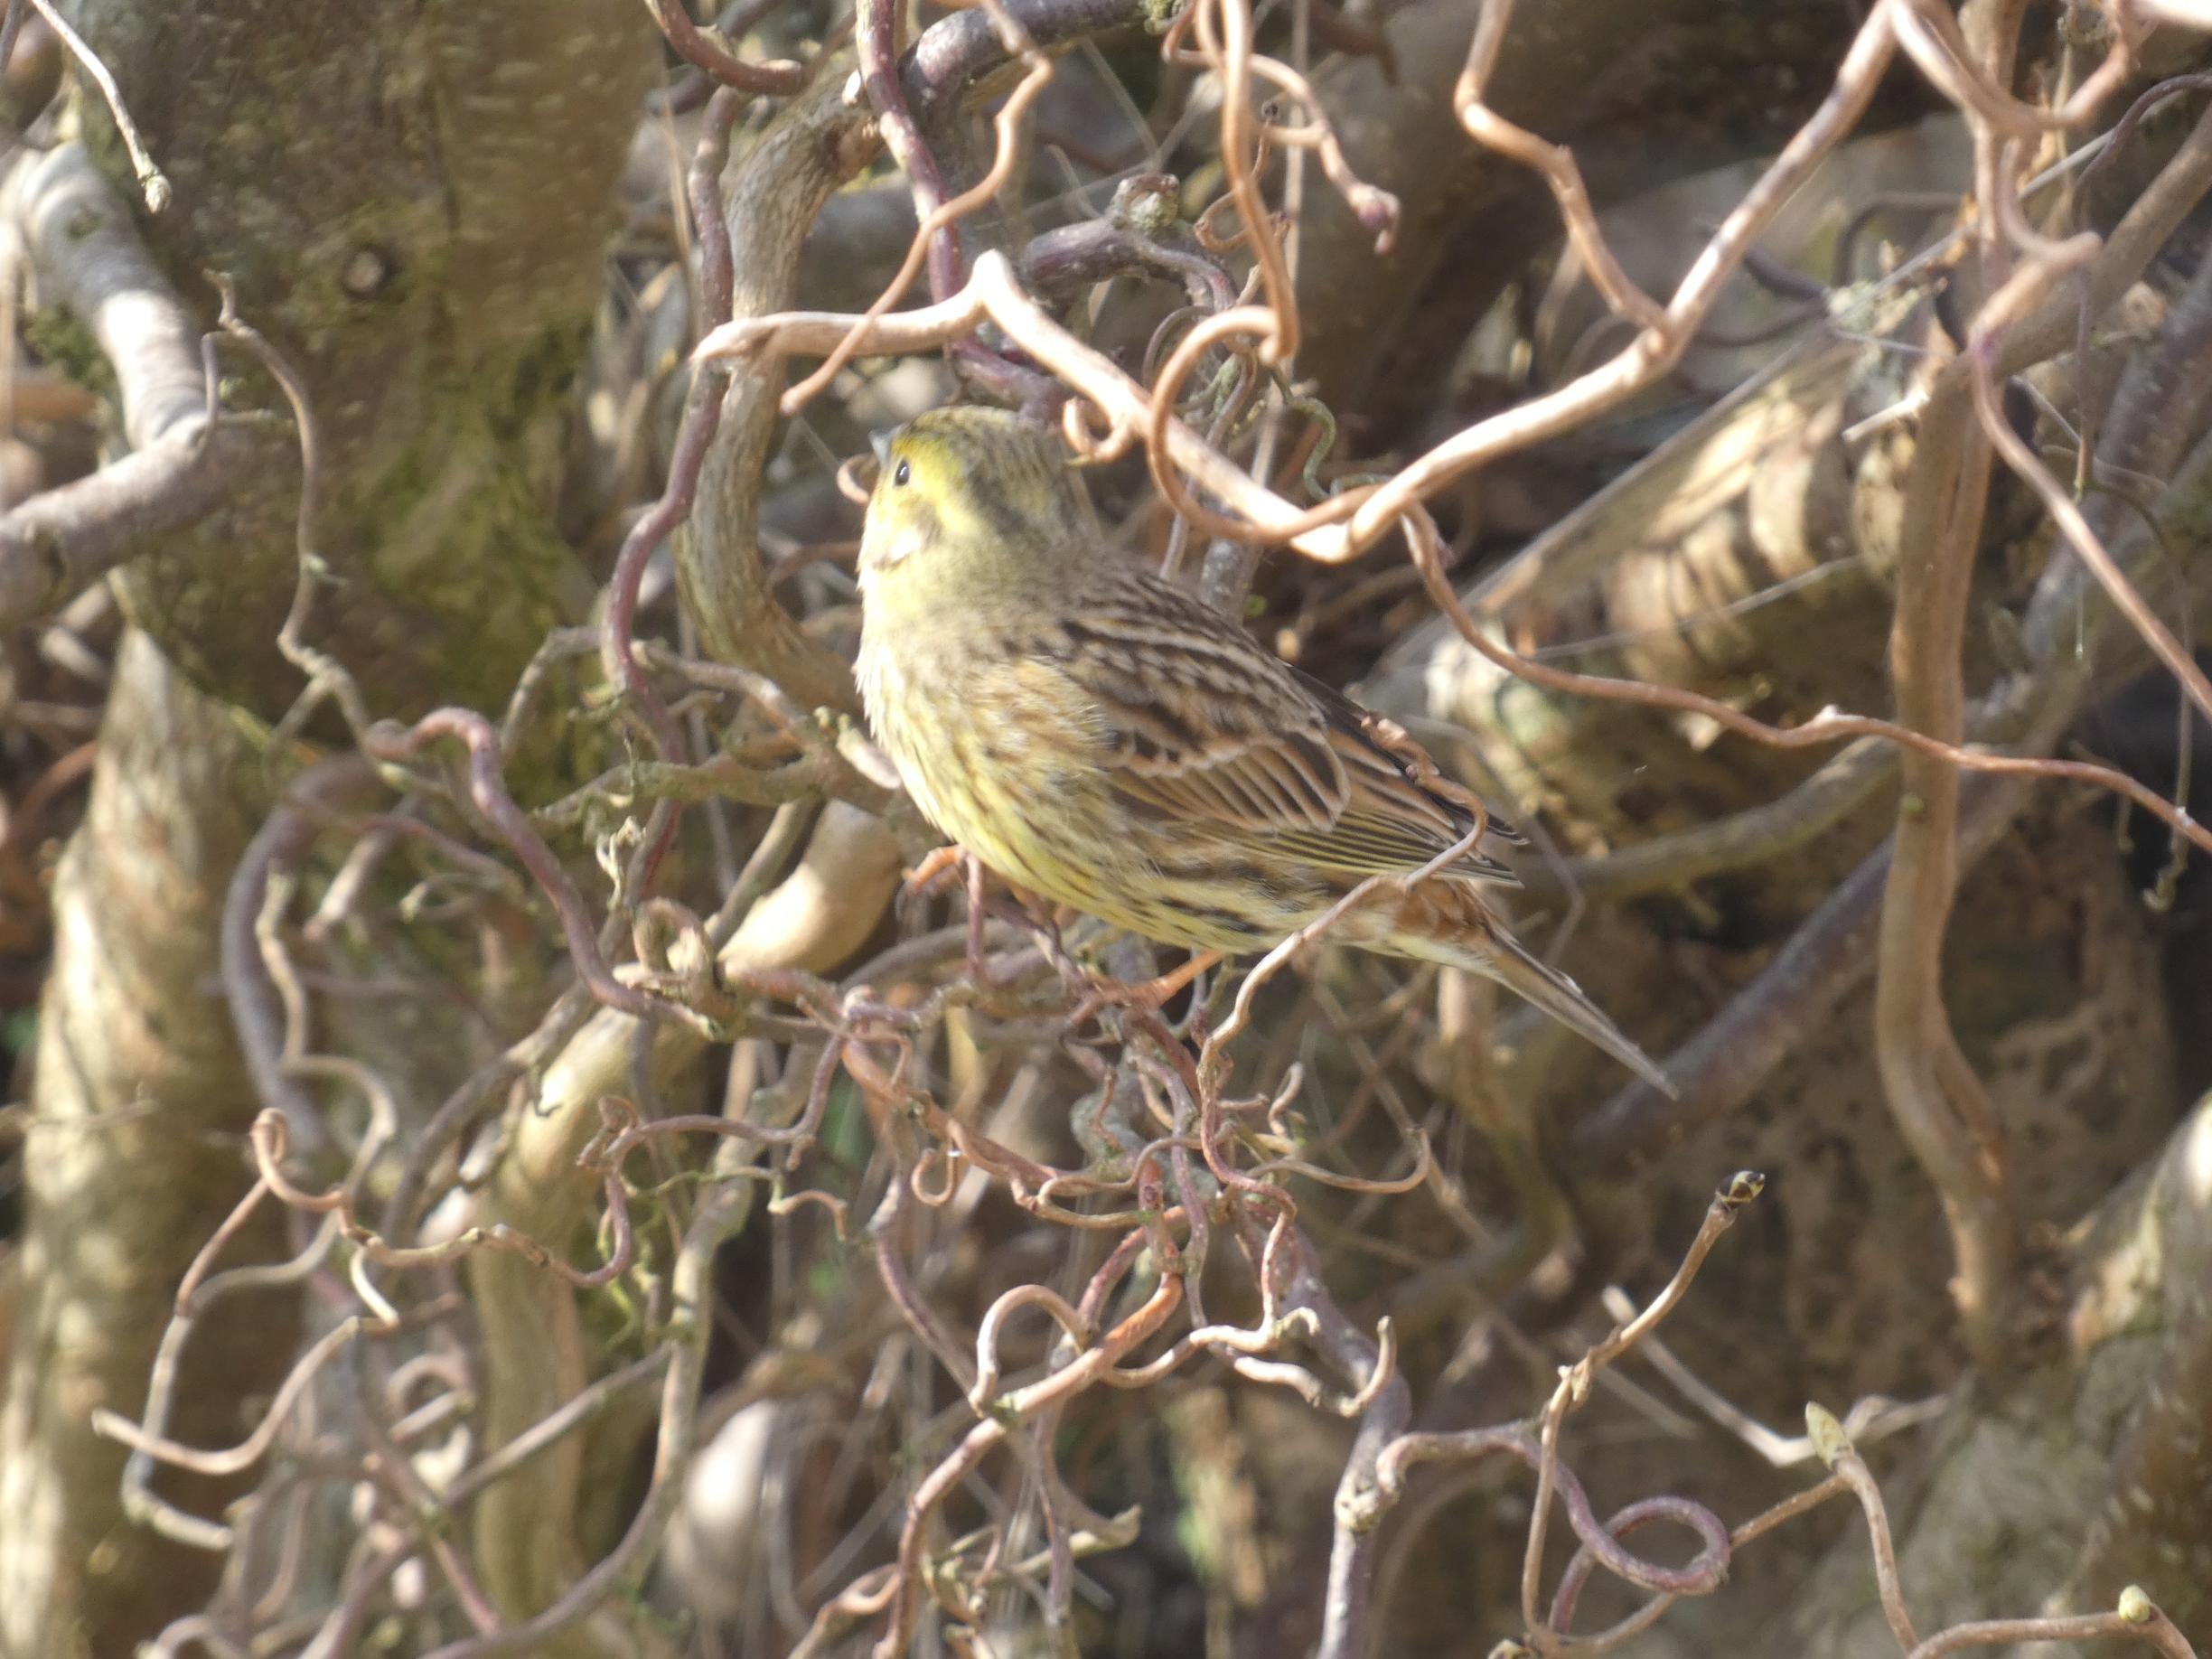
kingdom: Animalia
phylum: Chordata
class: Aves
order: Passeriformes
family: Emberizidae
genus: Emberiza
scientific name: Emberiza citrinella
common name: Gulspurv
